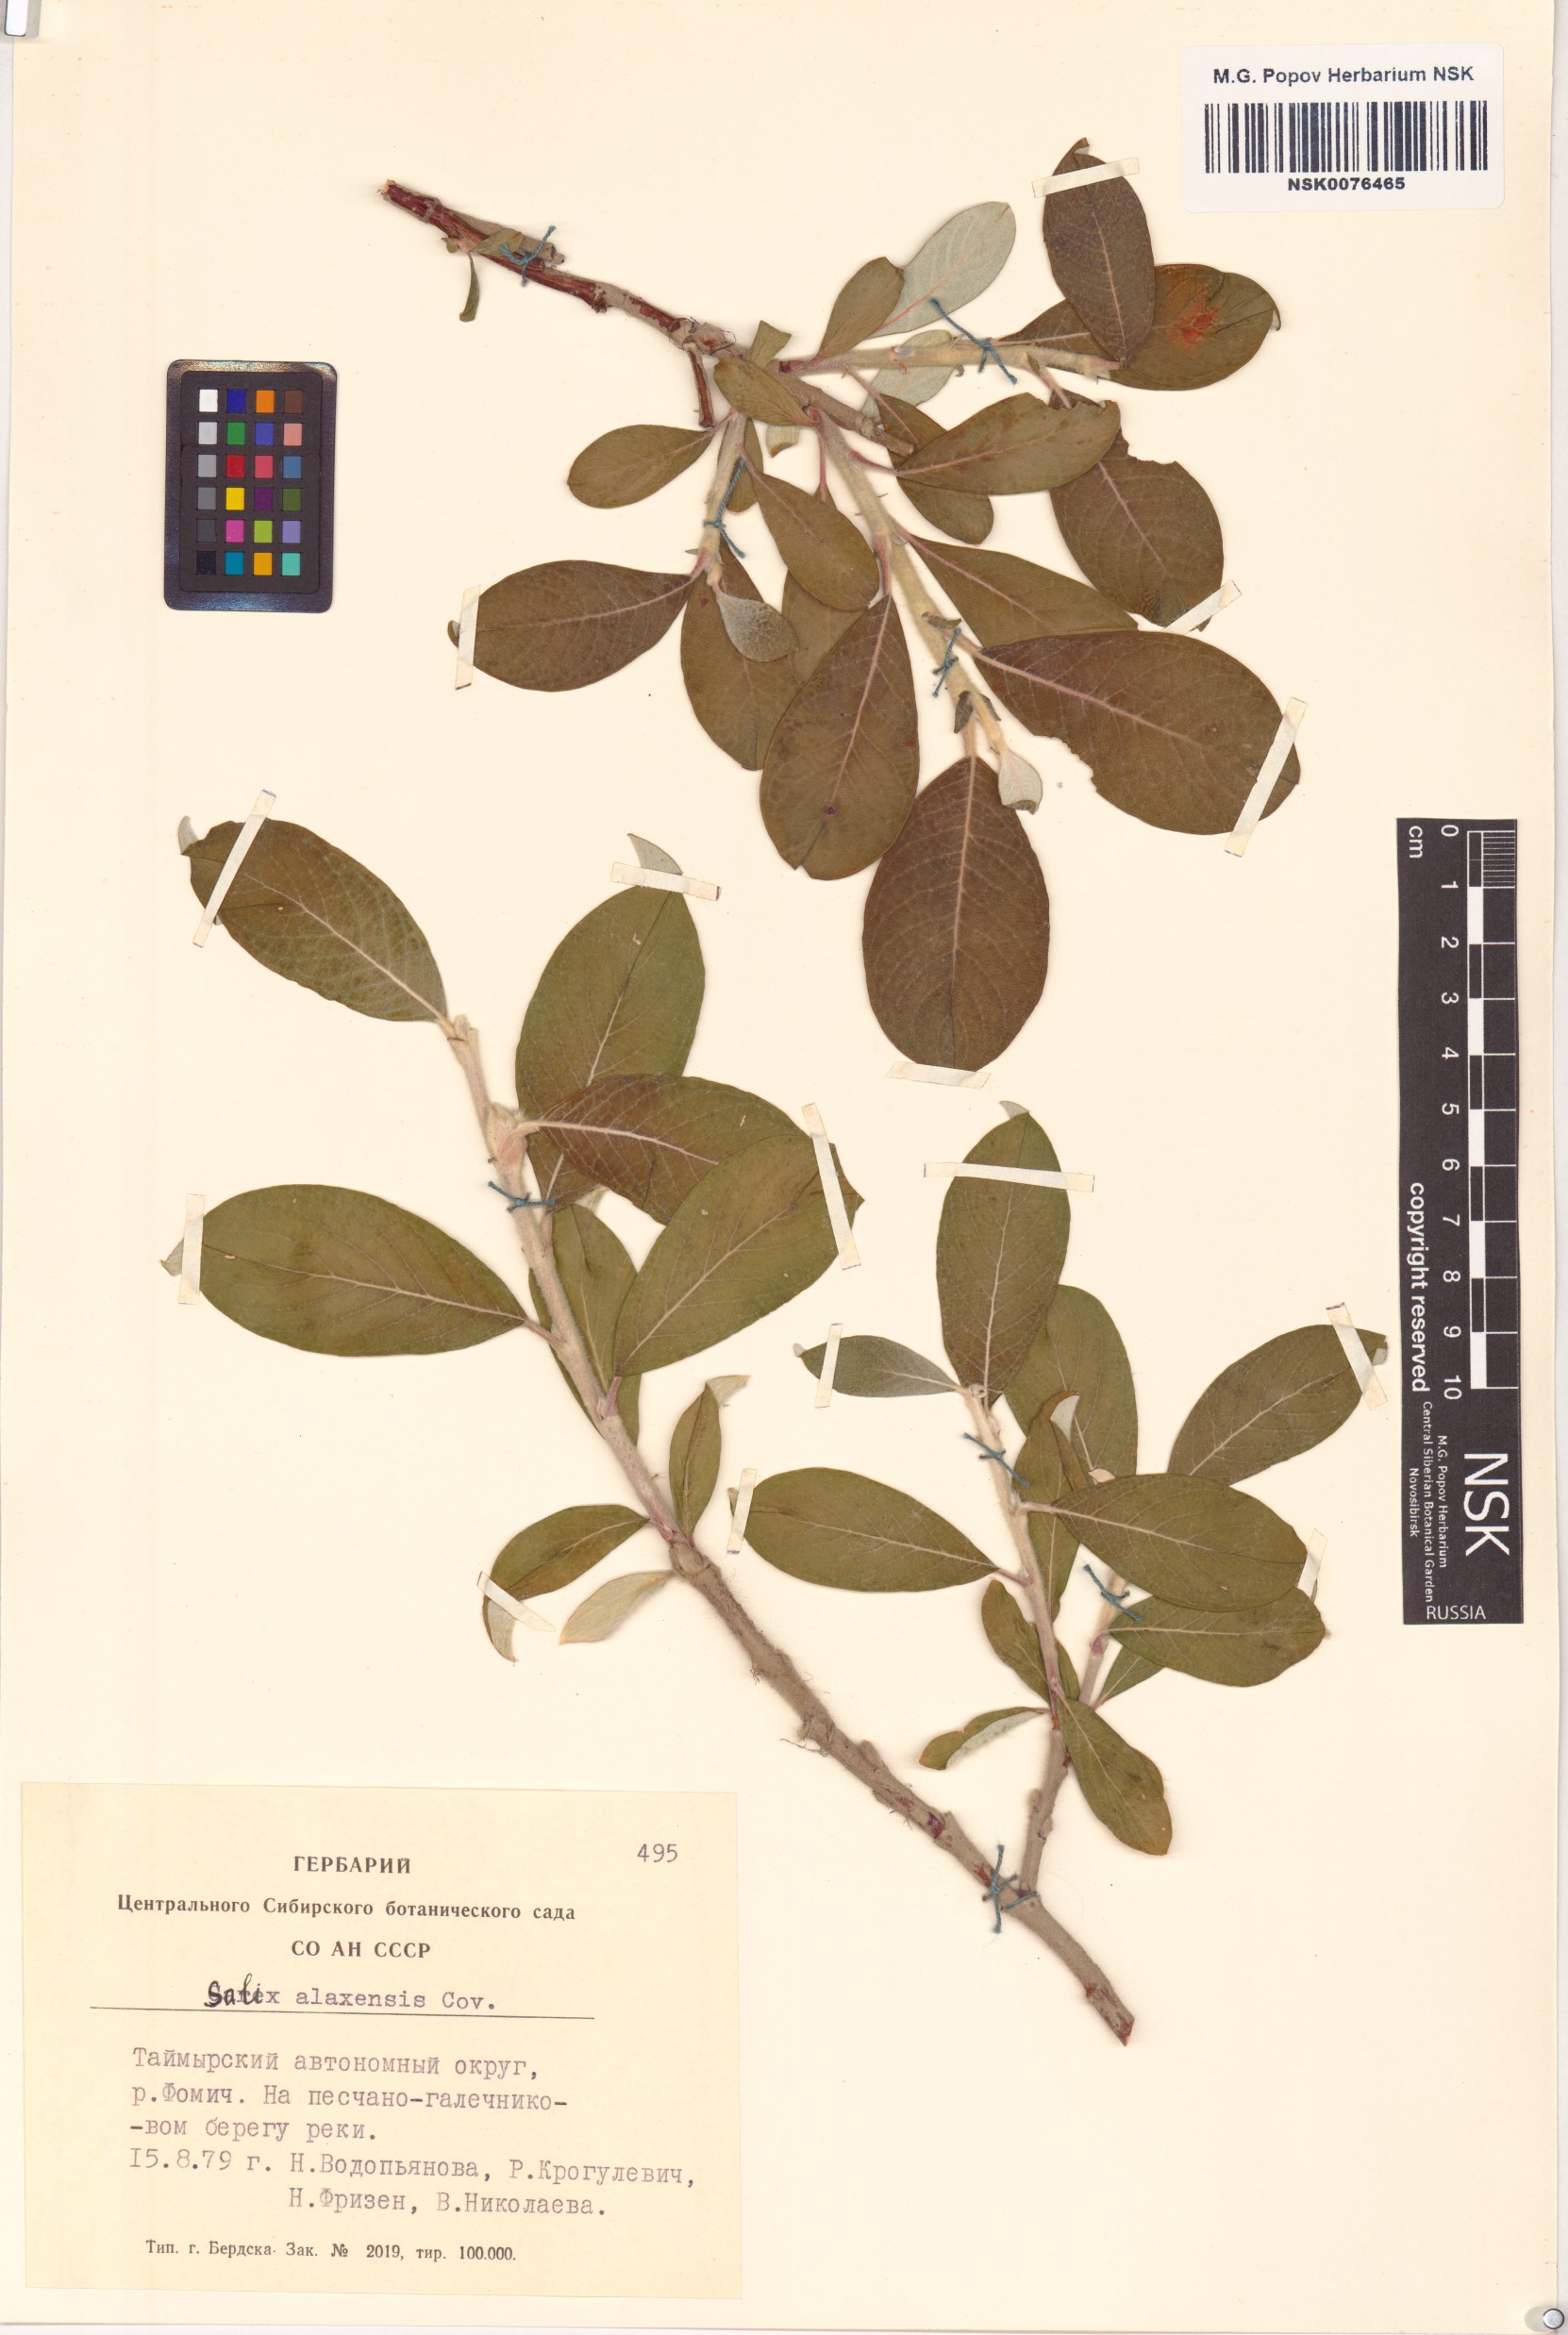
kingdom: Plantae
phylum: Tracheophyta
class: Magnoliopsida
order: Malpighiales
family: Salicaceae
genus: Salix
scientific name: Salix alaxensis
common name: Feltleaf willow
